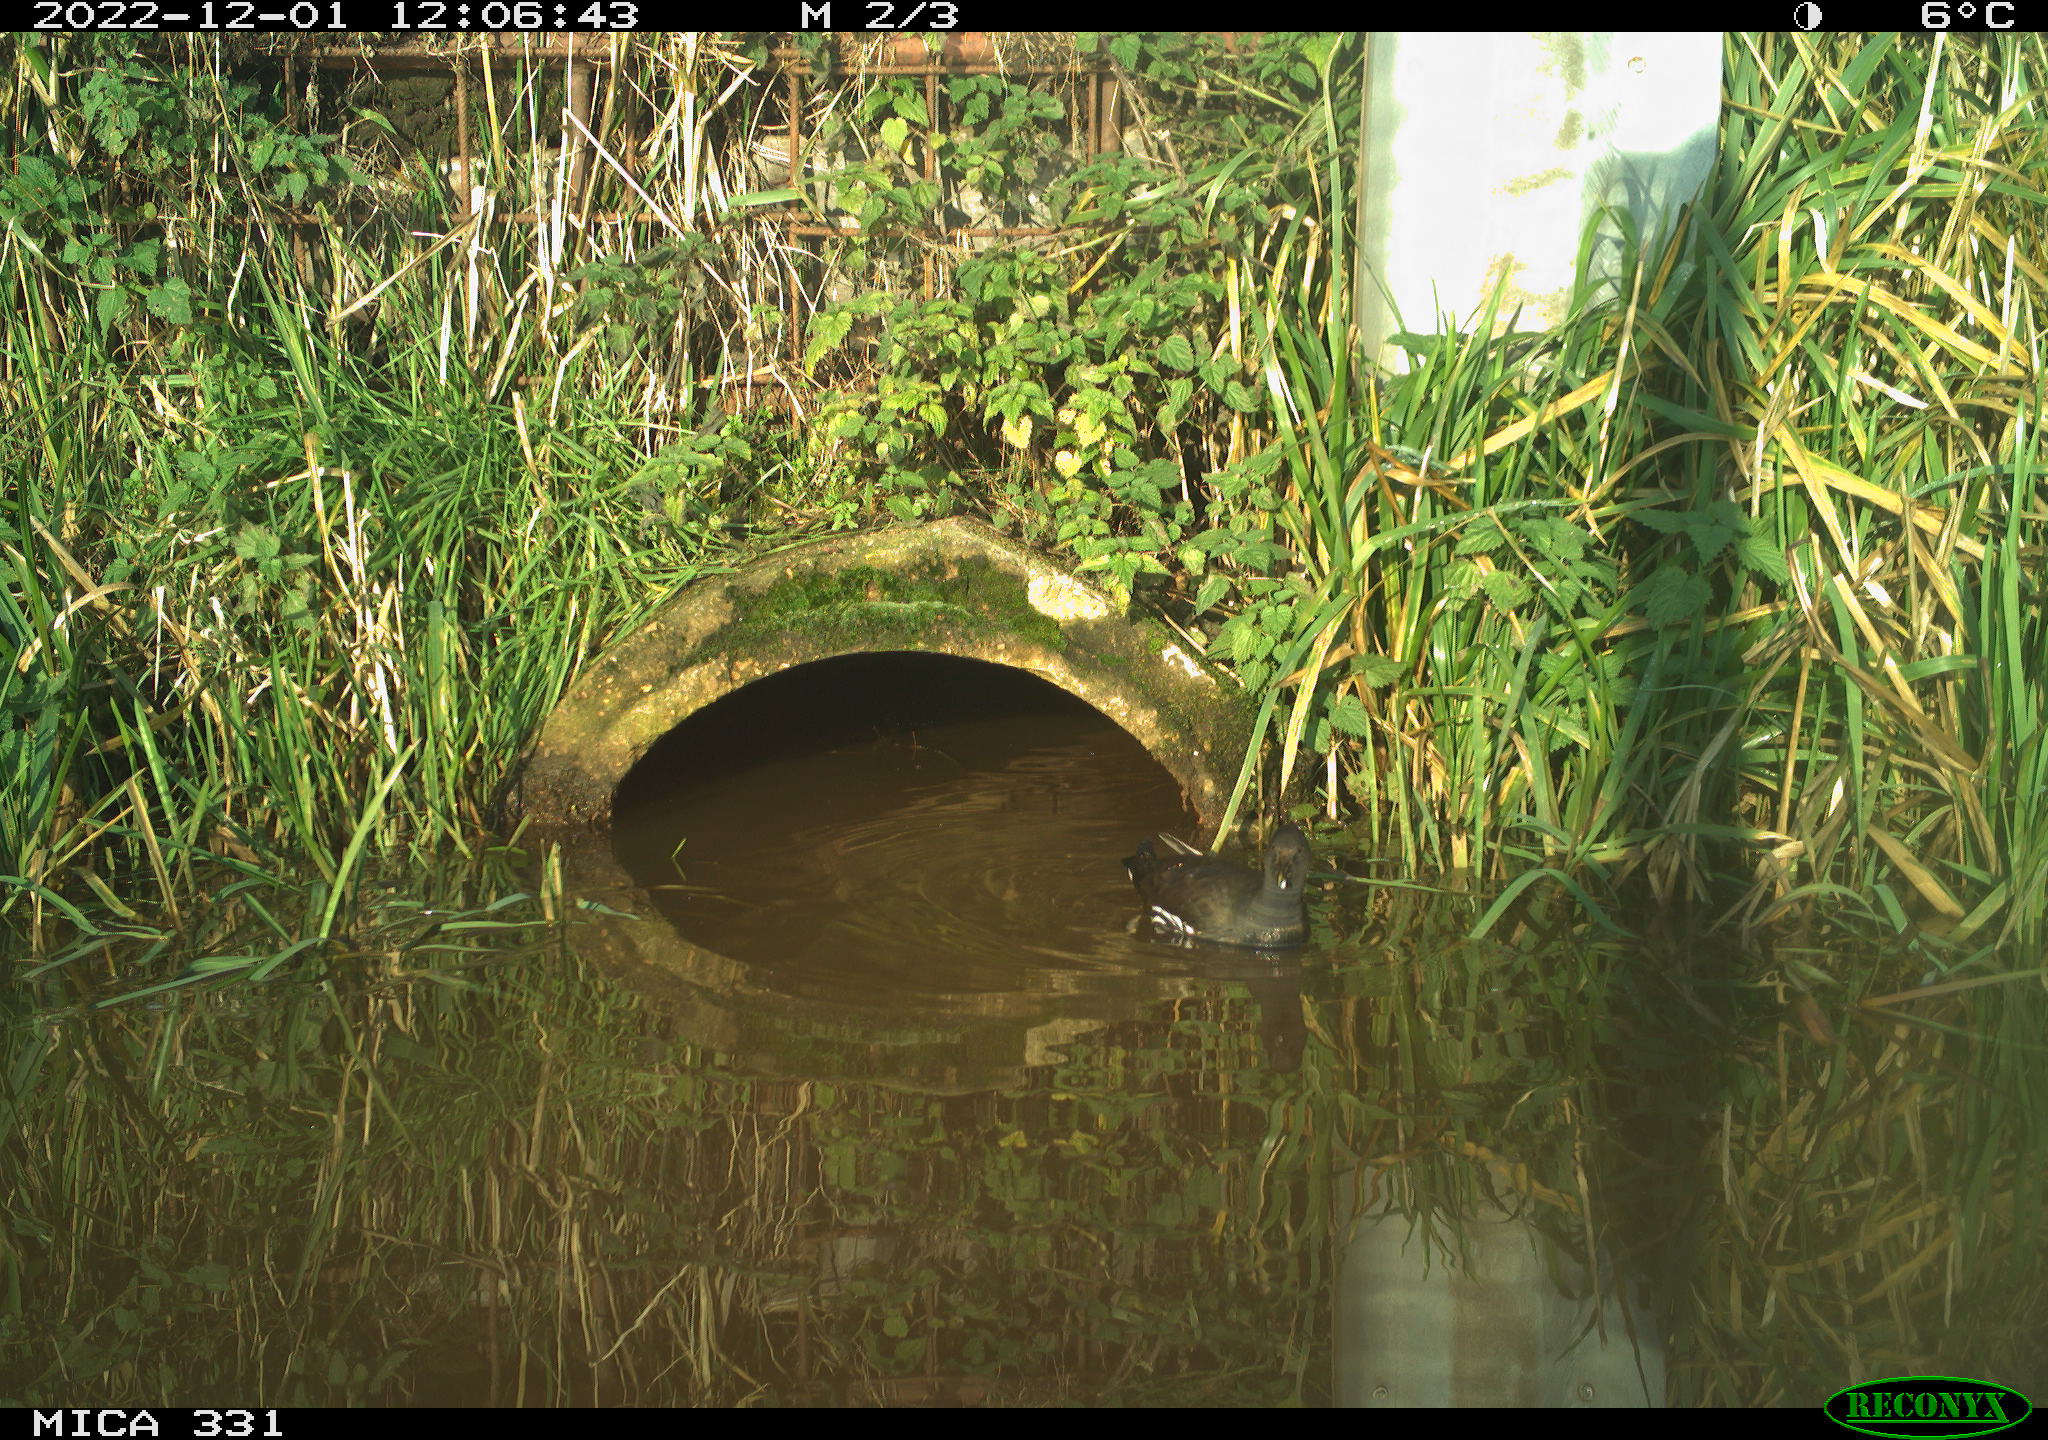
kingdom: Animalia
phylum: Chordata
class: Aves
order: Gruiformes
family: Rallidae
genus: Fulica
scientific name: Fulica atra
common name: Eurasian coot
